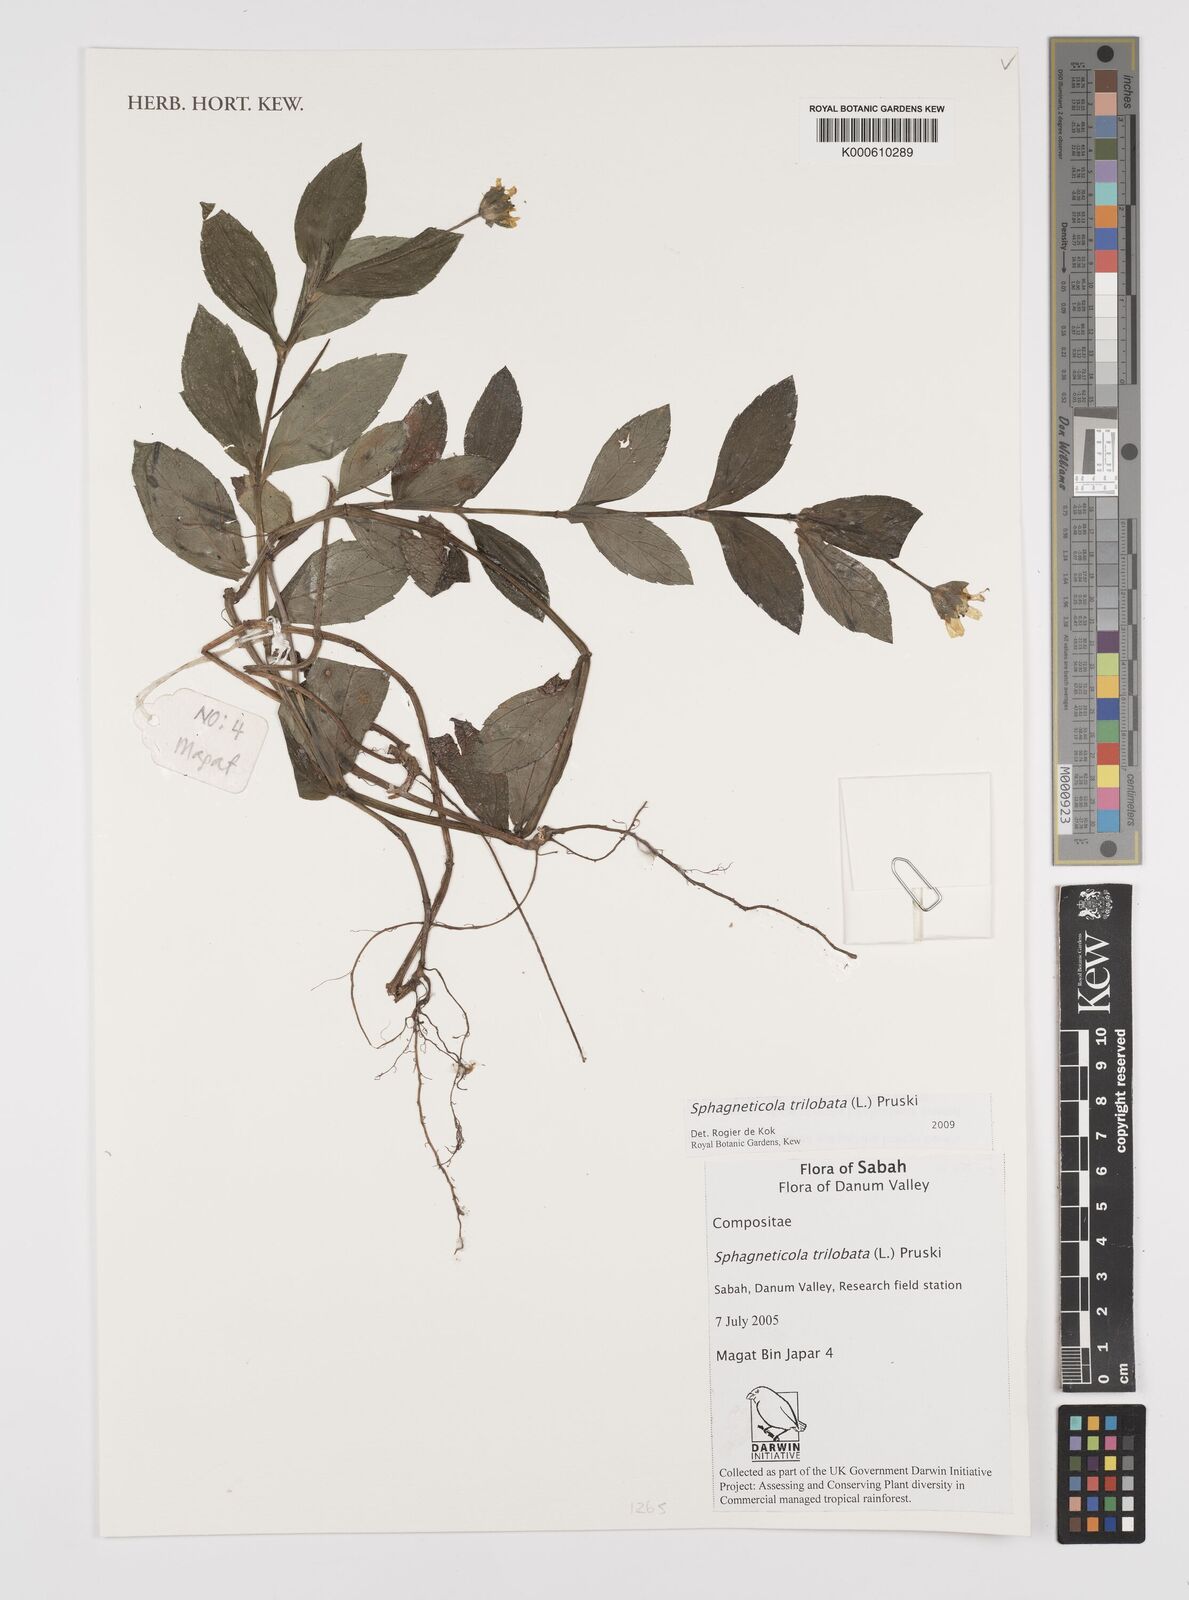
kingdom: Plantae
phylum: Tracheophyta
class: Magnoliopsida
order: Asterales
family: Asteraceae
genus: Sphagneticola
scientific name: Sphagneticola trilobata
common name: Bay biscayne creeping-oxeye
